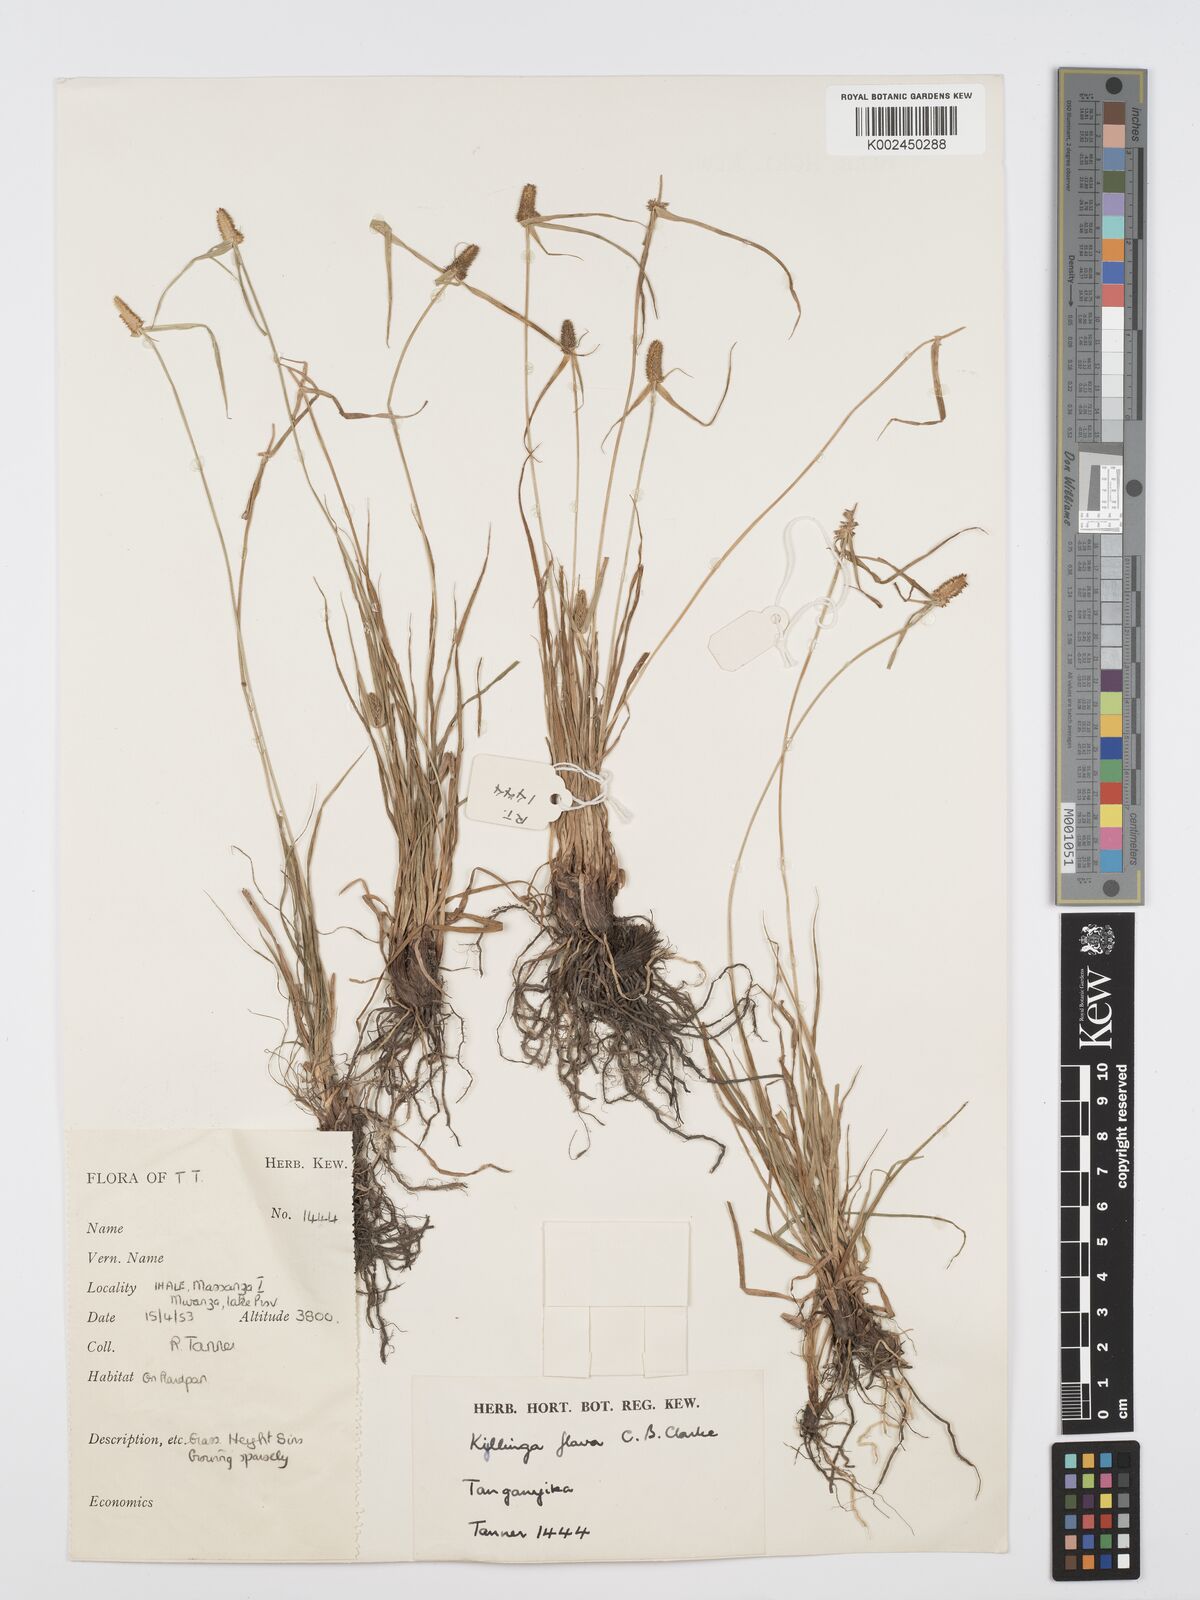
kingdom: Plantae
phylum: Tracheophyta
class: Liliopsida
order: Poales
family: Cyperaceae
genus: Cyperus
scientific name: Cyperus
